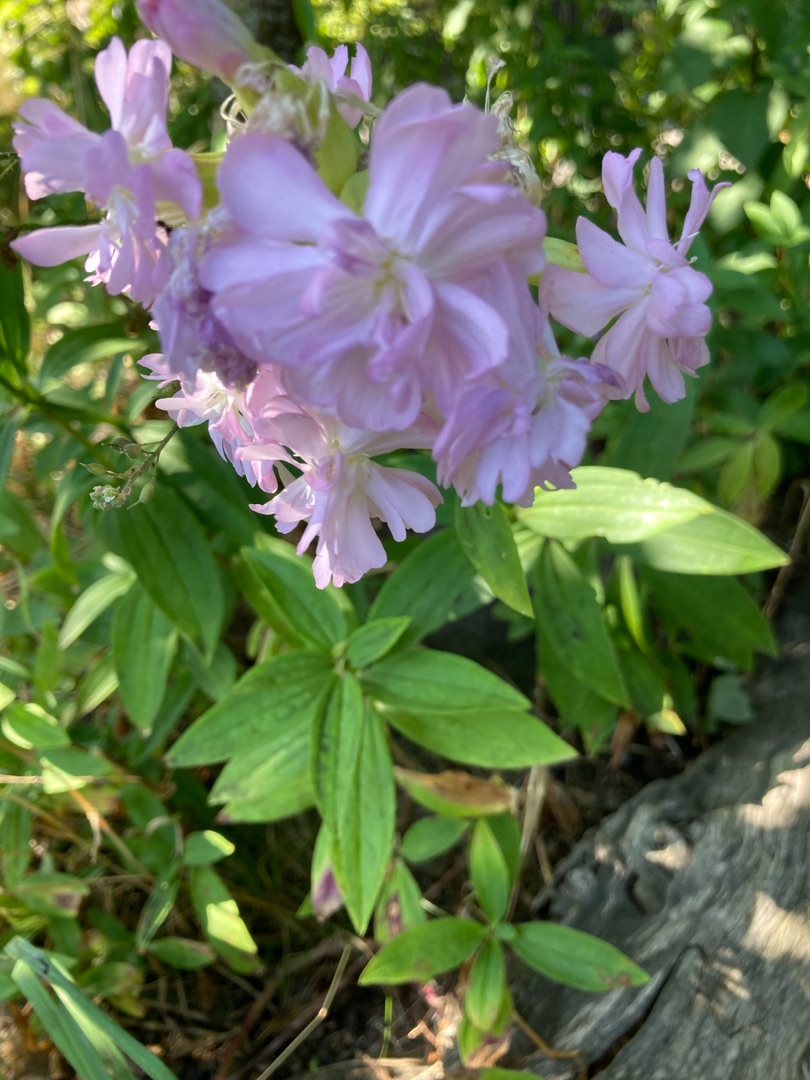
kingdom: Plantae
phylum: Tracheophyta
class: Magnoliopsida
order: Caryophyllales
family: Caryophyllaceae
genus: Saponaria
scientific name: Saponaria officinalis
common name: Sæbeurt
